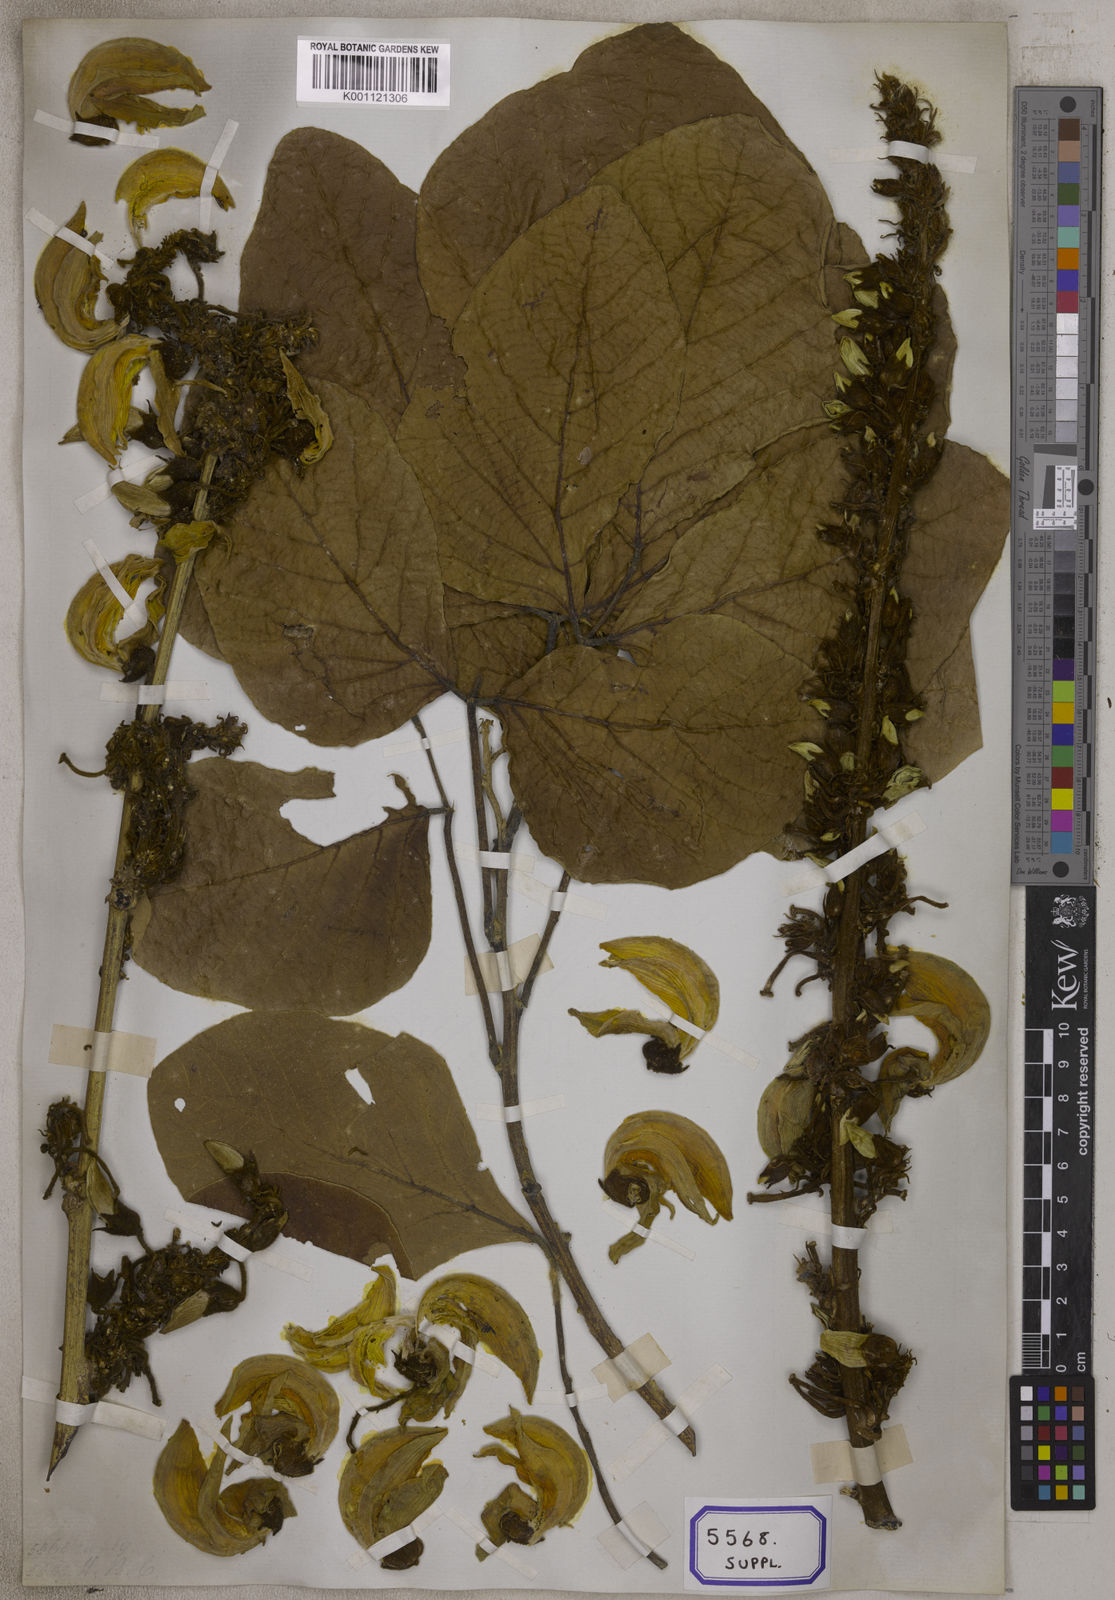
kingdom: Plantae
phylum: Tracheophyta
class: Magnoliopsida
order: Fabales
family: Fabaceae
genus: Cajanus
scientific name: Cajanus mollis
